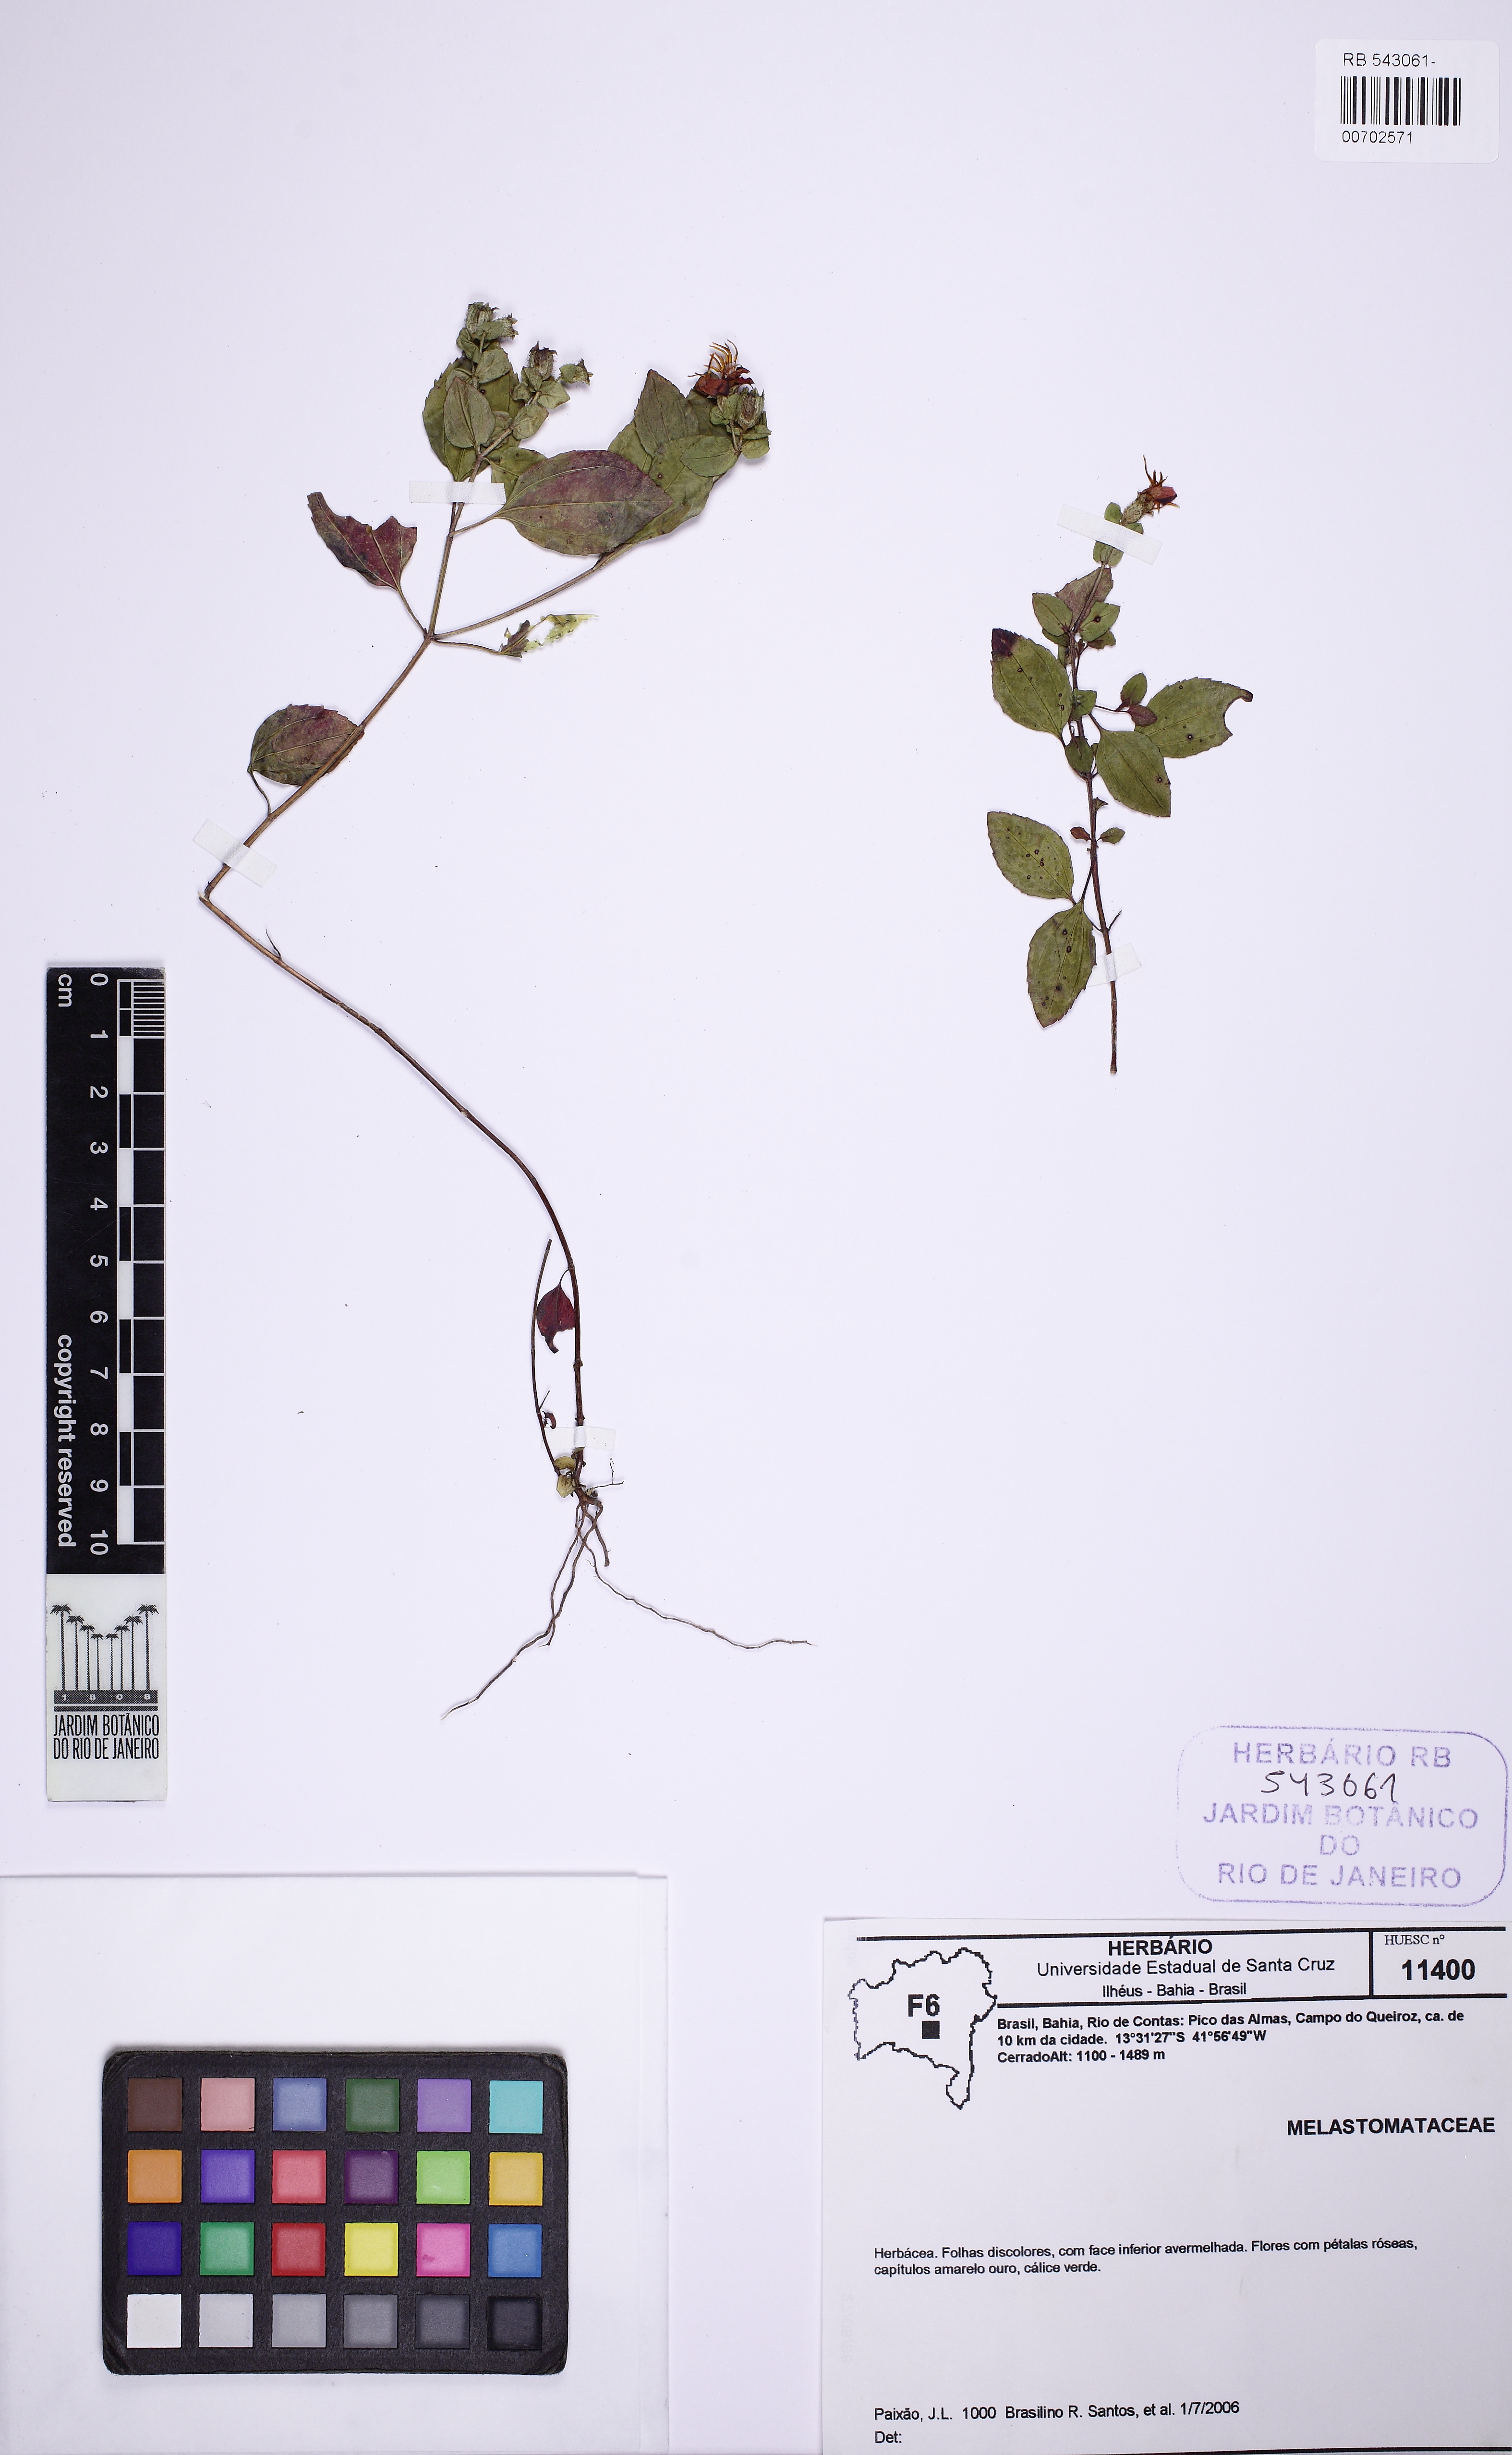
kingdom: Plantae
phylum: Tracheophyta
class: Magnoliopsida
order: Myrtales
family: Melastomataceae
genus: Cambessedesia
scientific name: Cambessedesia
